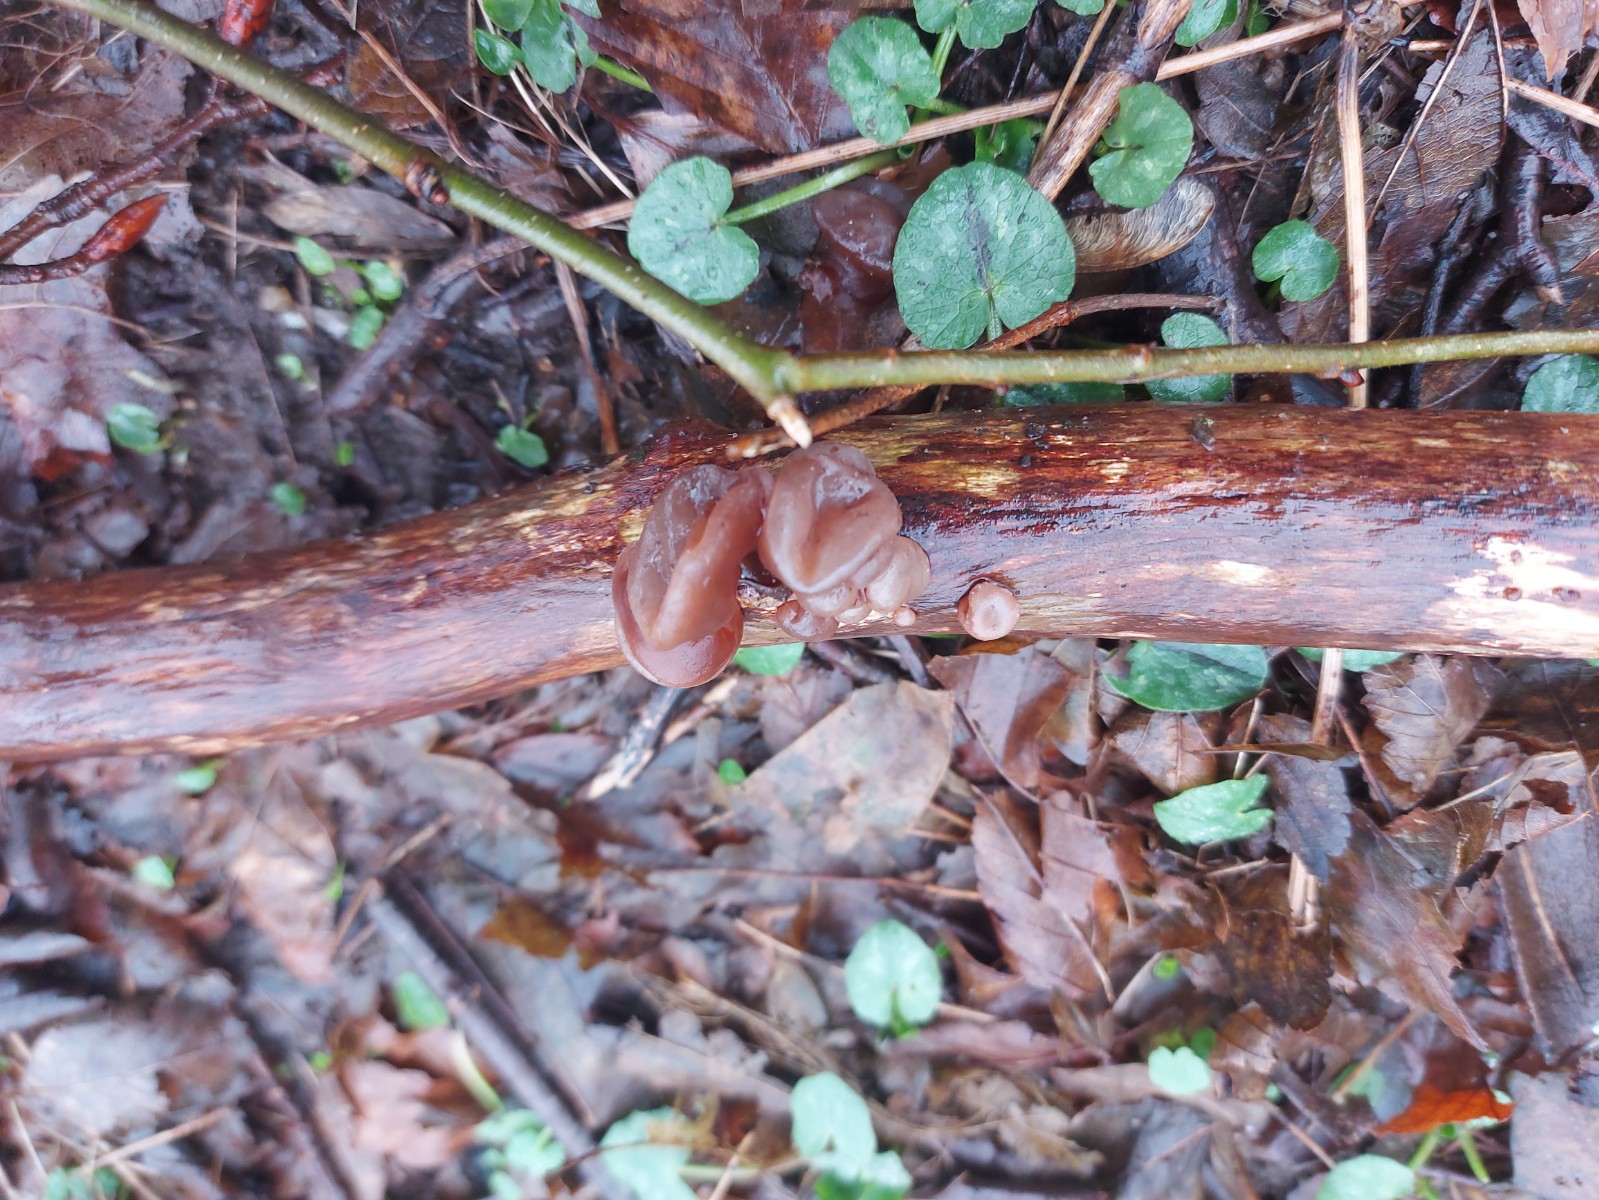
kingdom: Fungi
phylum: Basidiomycota
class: Agaricomycetes
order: Auriculariales
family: Auriculariaceae
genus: Auricularia
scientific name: Auricularia auricula-judae
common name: almindelig judasøre
